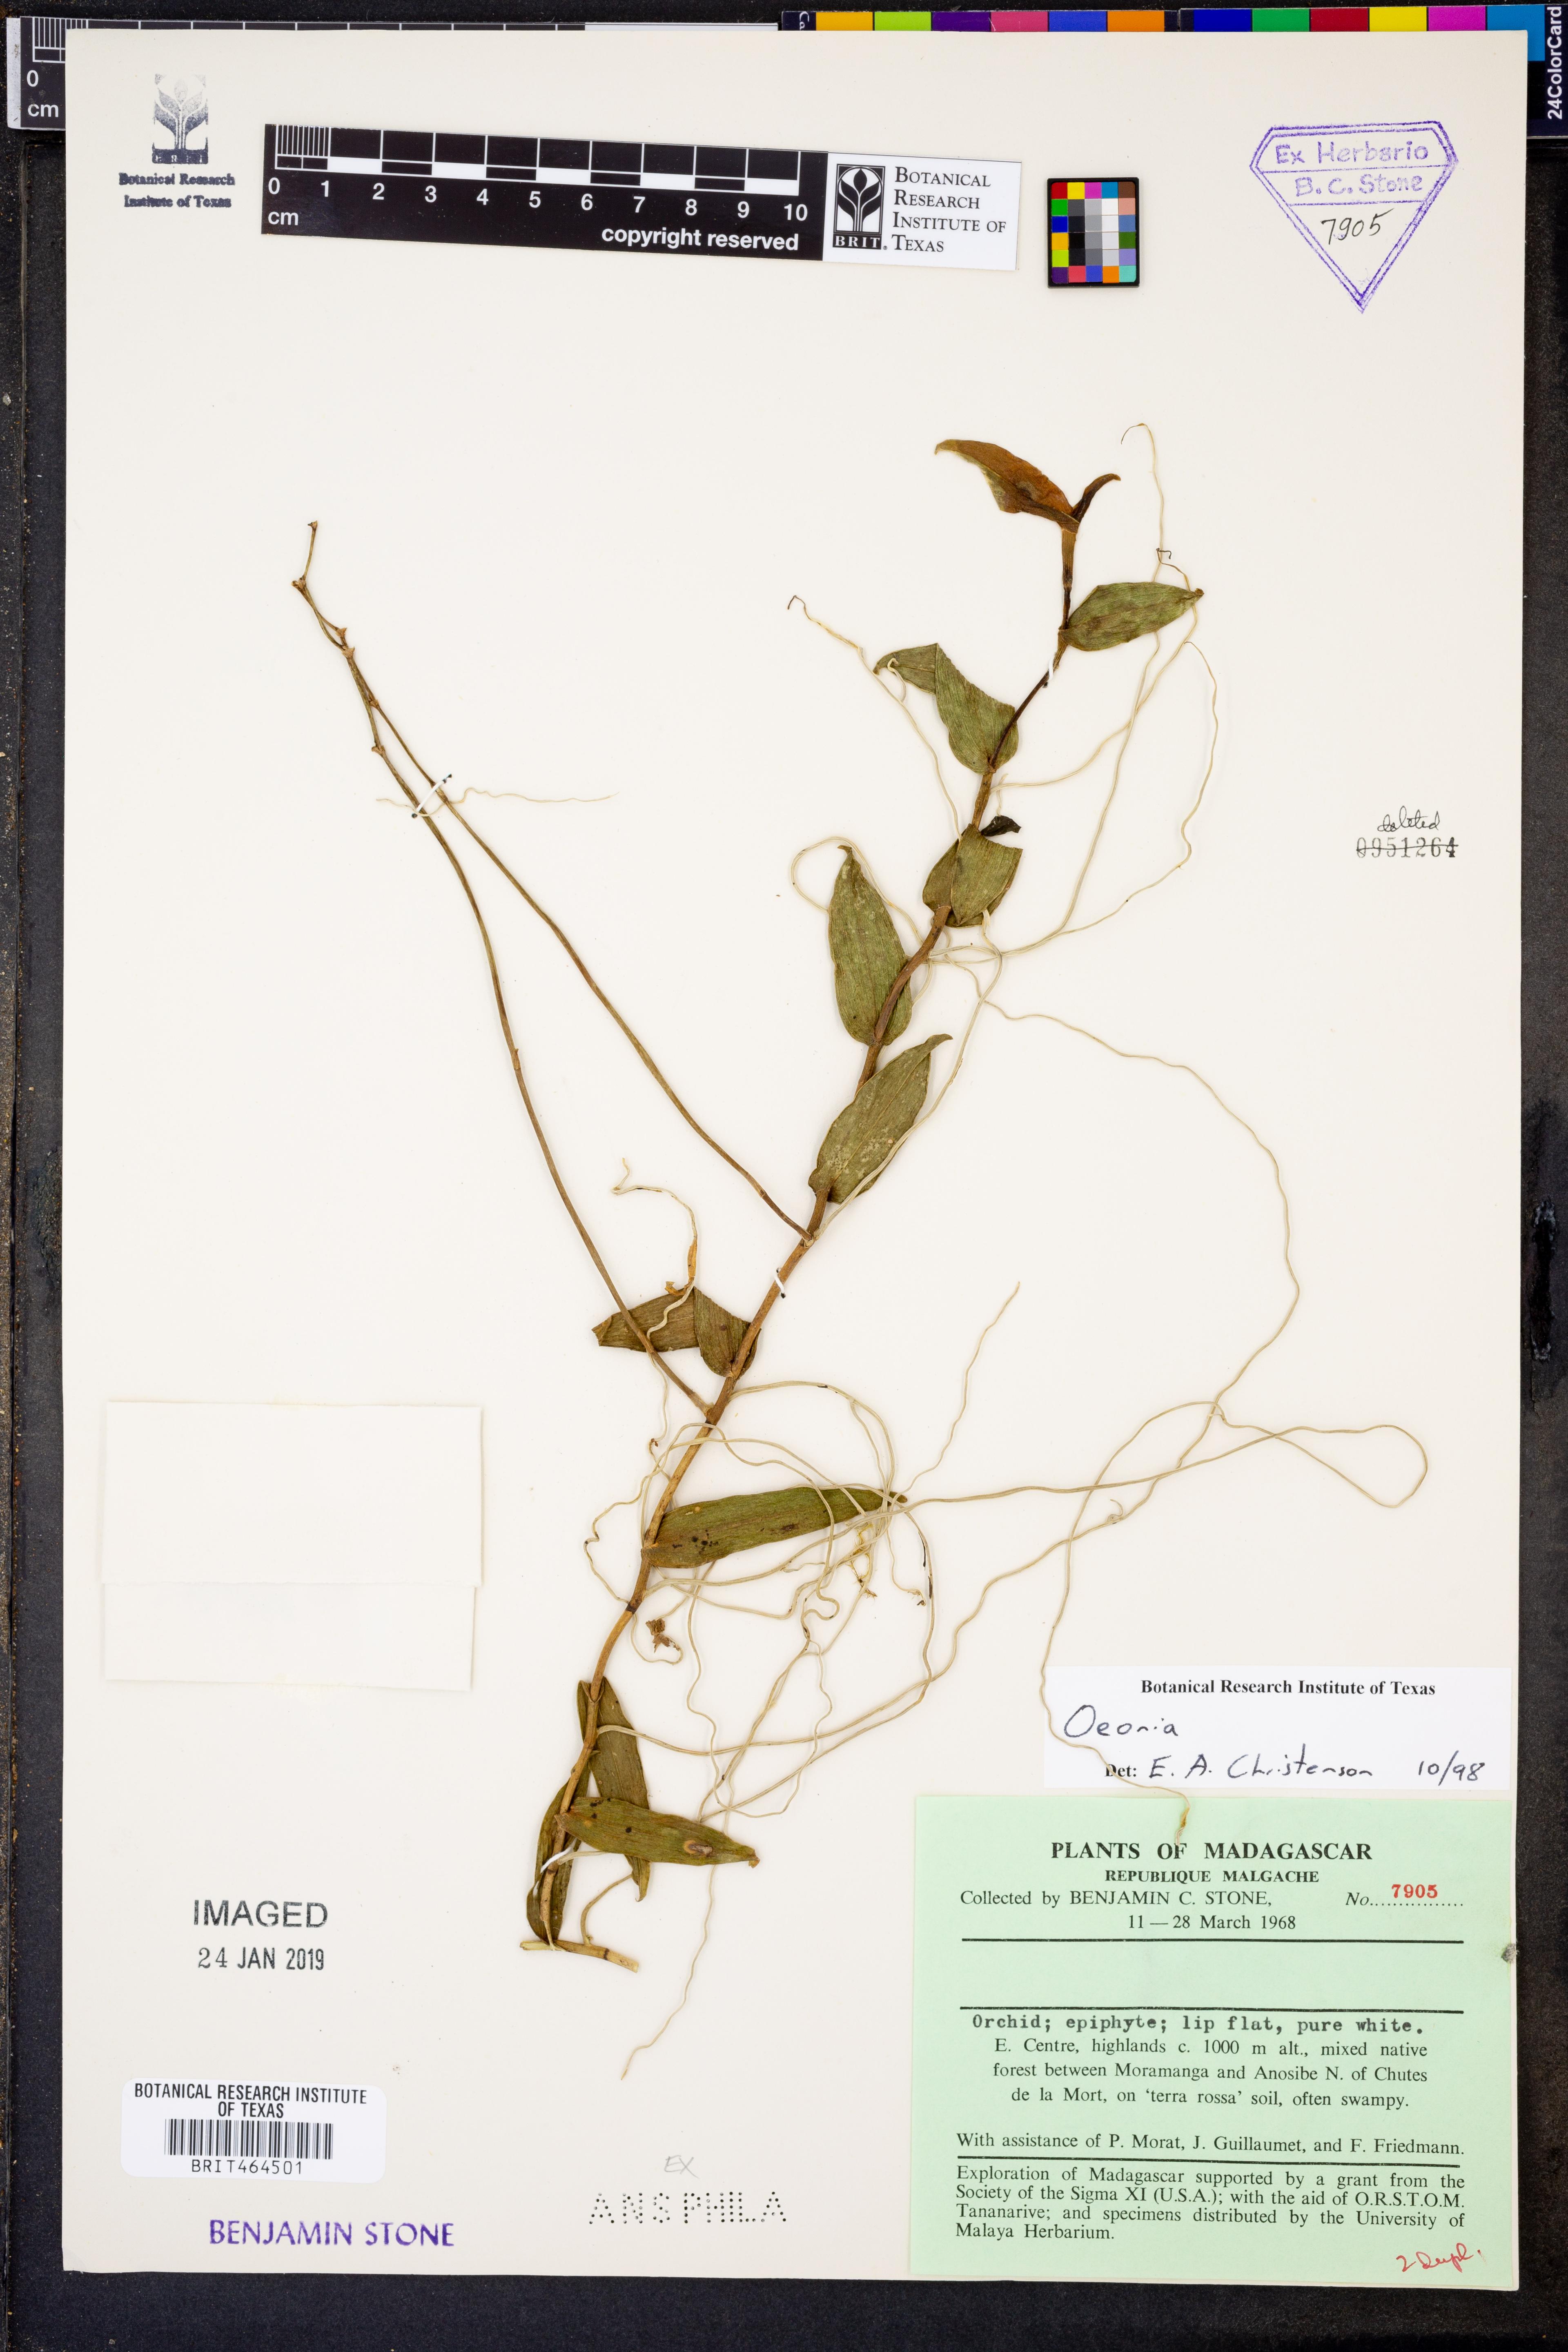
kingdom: Plantae
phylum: Tracheophyta
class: Liliopsida
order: Asparagales
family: Orchidaceae
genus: Oeonia
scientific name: Oeonia
